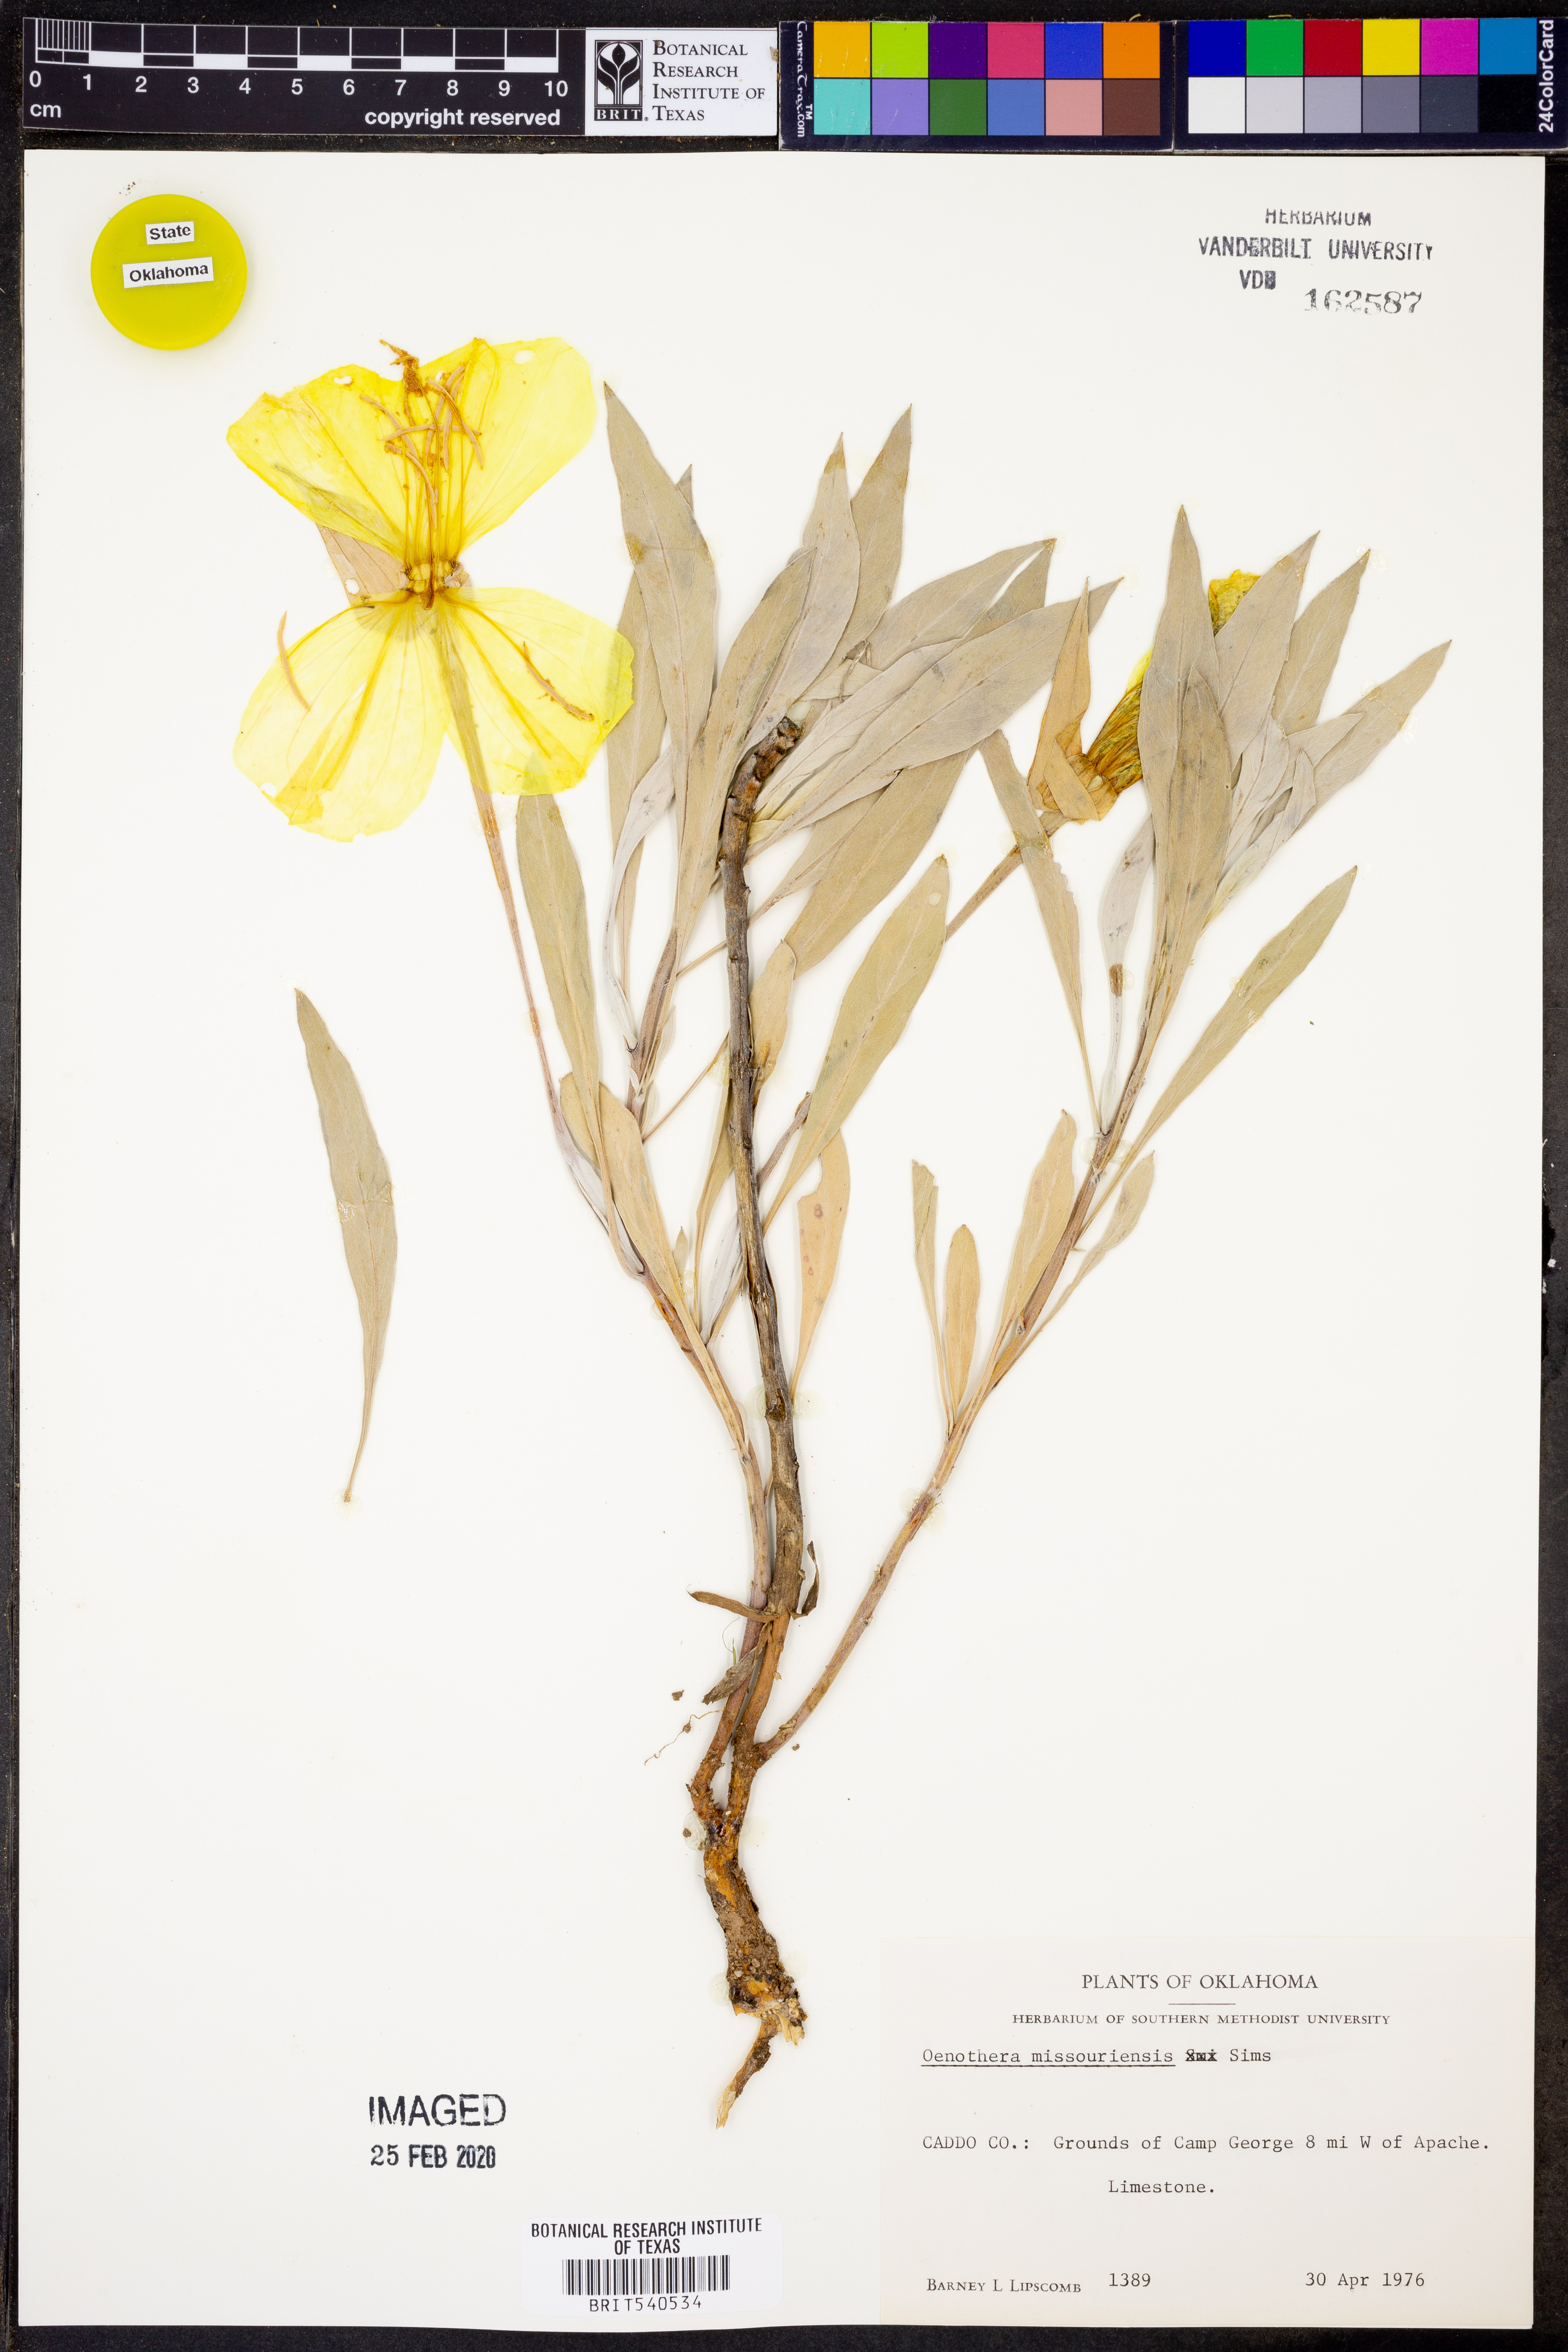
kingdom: Plantae
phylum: Tracheophyta
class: Magnoliopsida
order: Myrtales
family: Onagraceae
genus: Oenothera
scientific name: Oenothera macrocarpa
